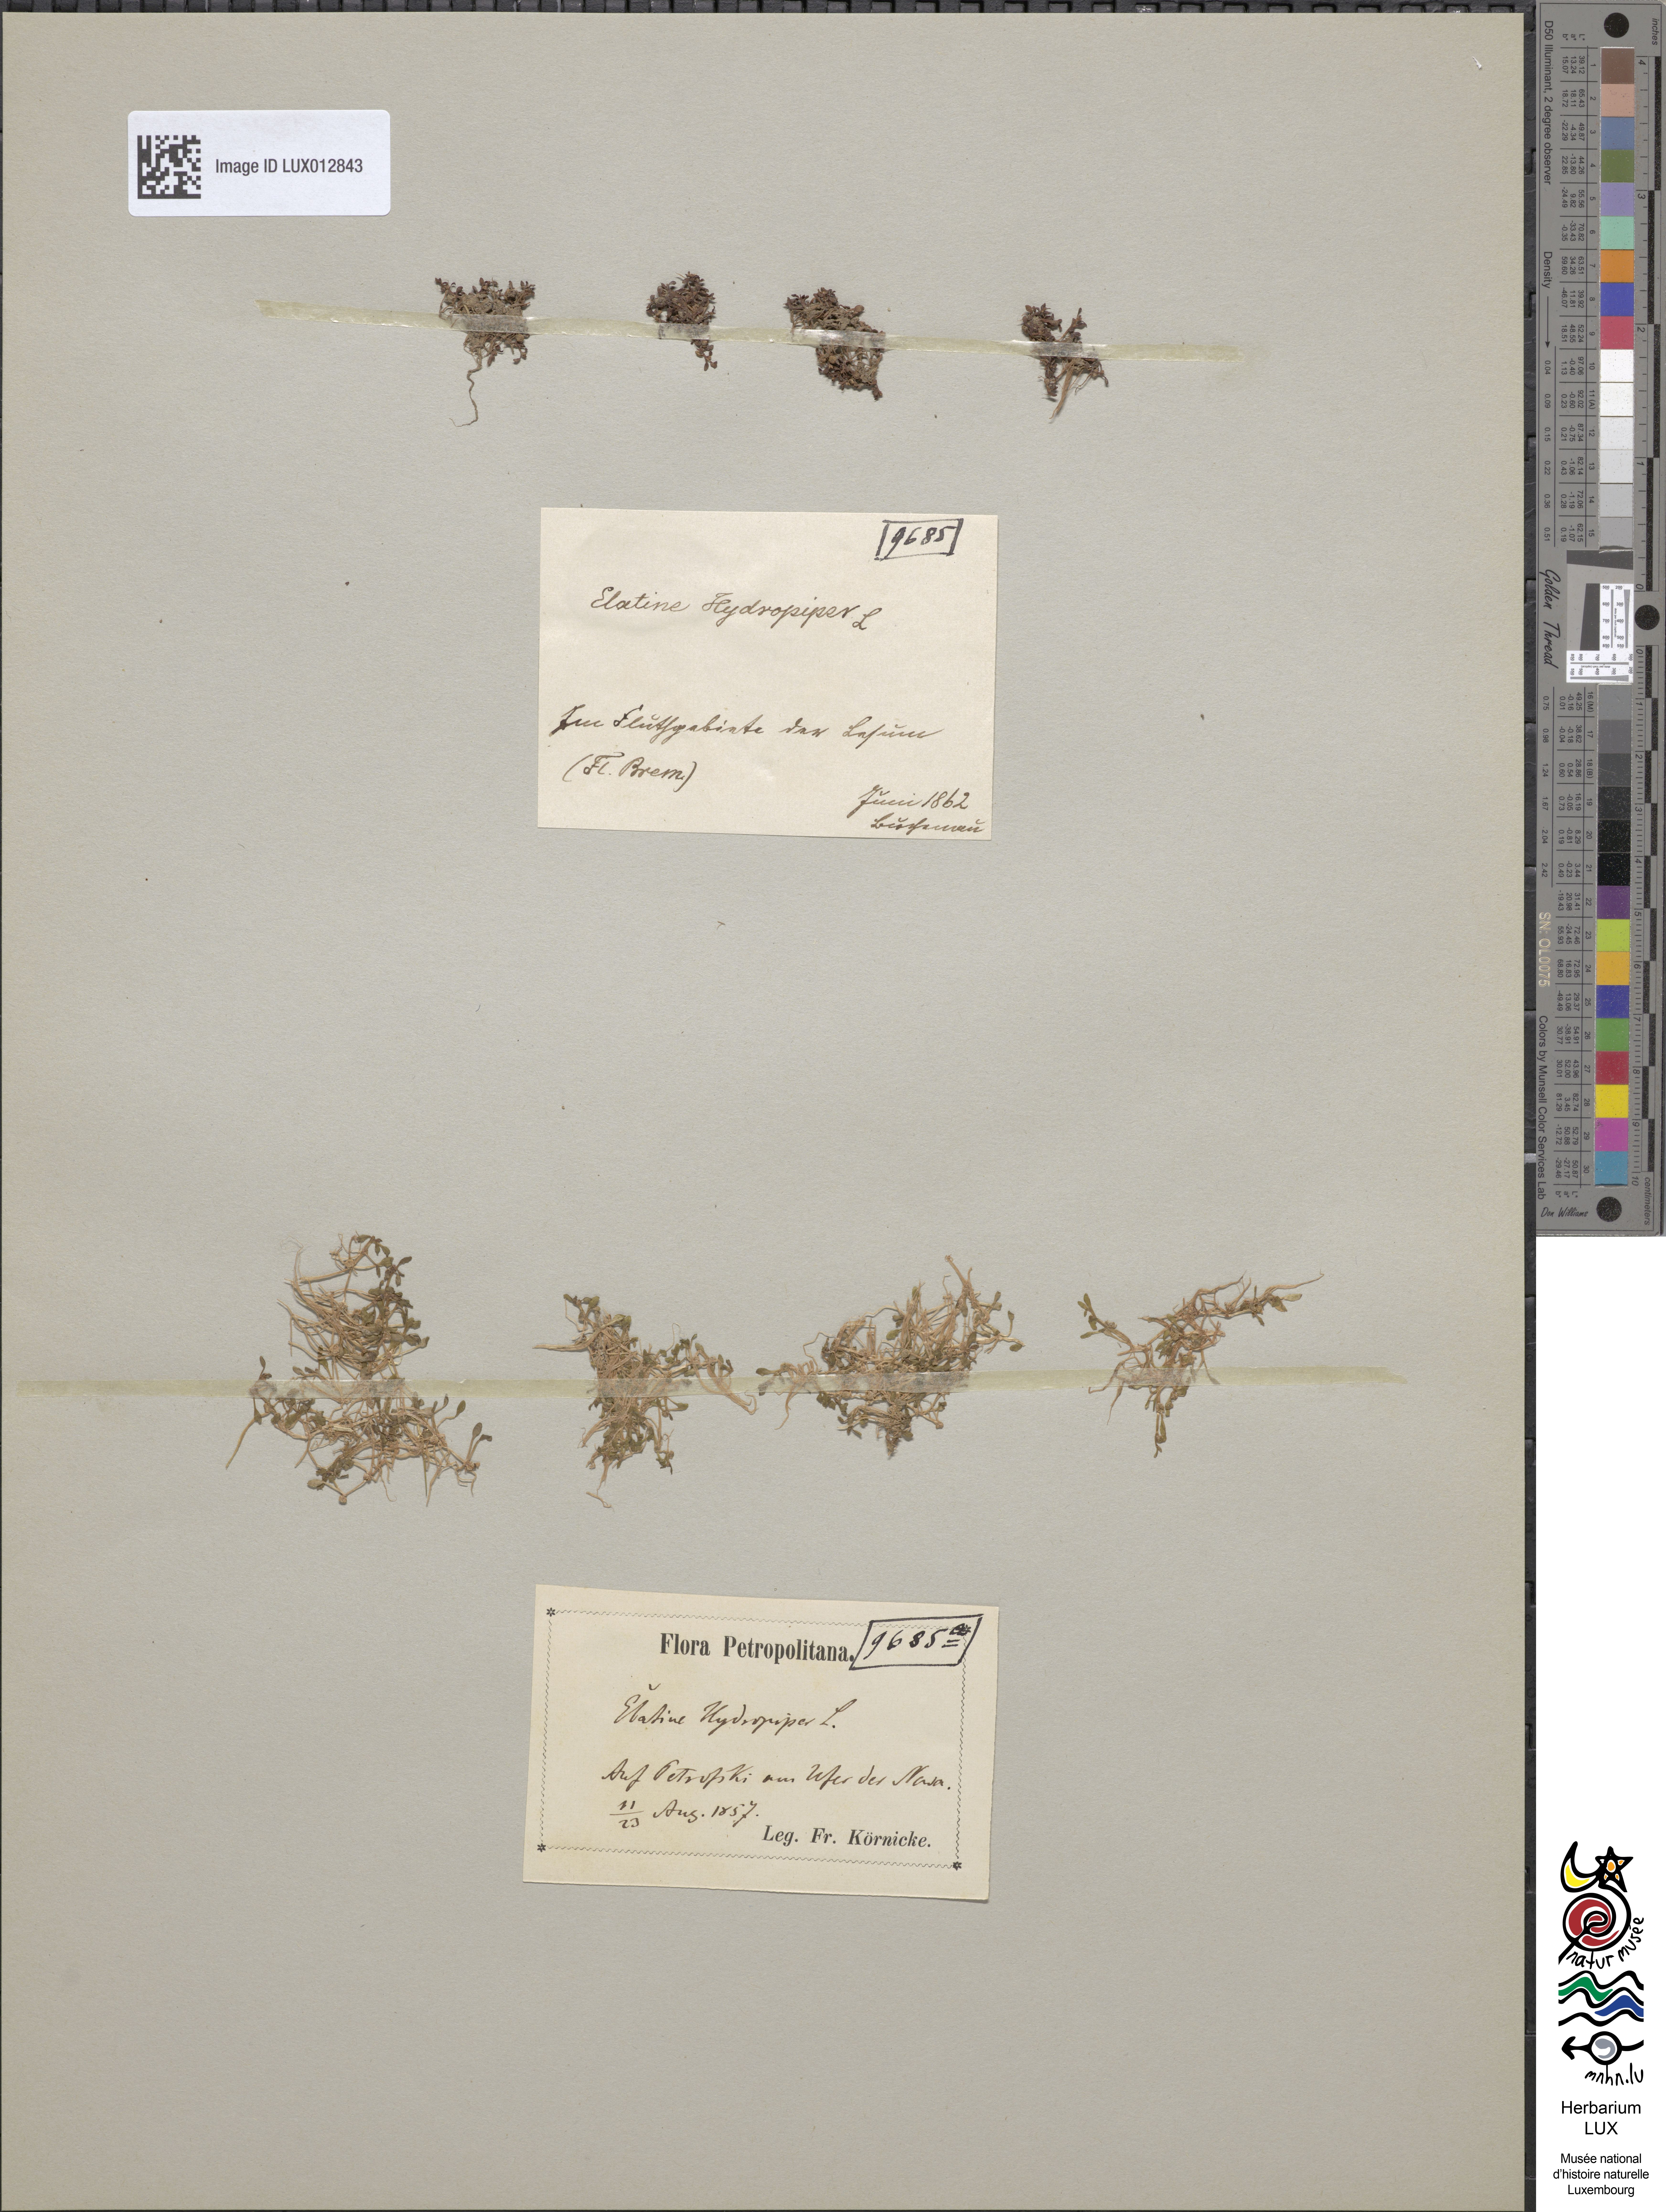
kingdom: Plantae
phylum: Tracheophyta
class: Magnoliopsida
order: Malpighiales
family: Elatinaceae
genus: Elatine
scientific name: Elatine hydropiper
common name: Eight-stamened waterwort
